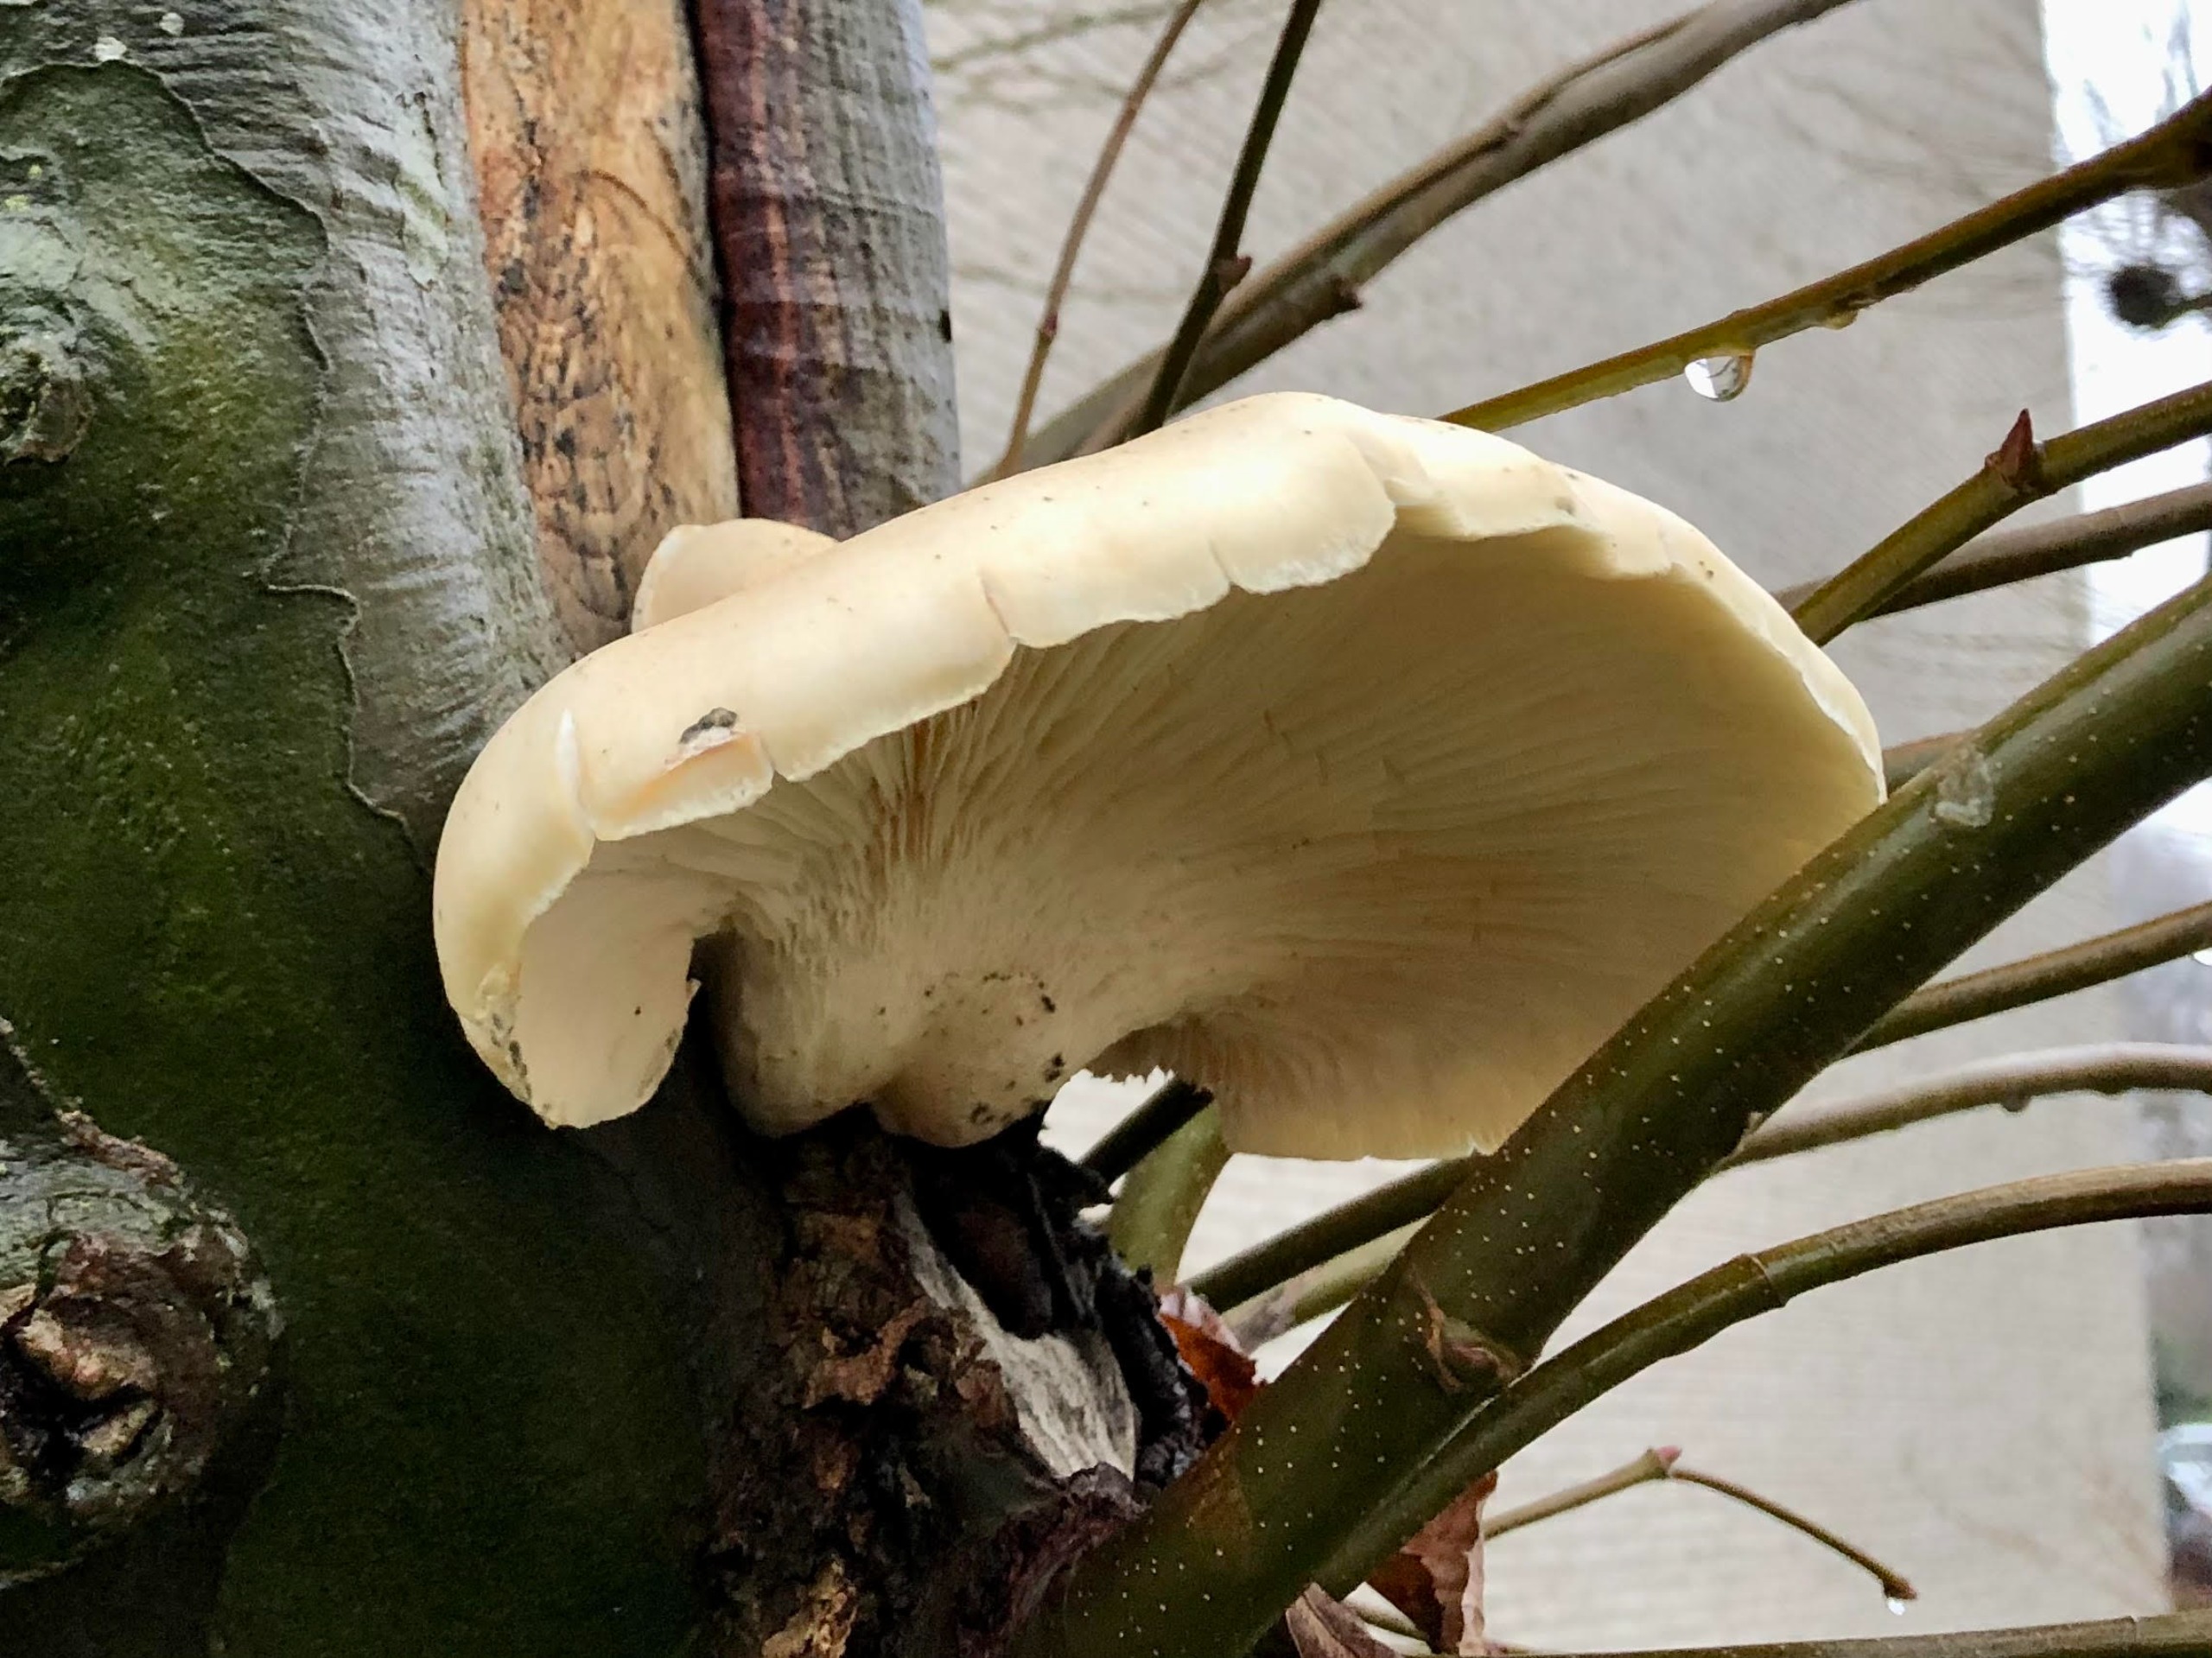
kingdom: Fungi
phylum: Basidiomycota
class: Agaricomycetes
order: Agaricales
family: Pleurotaceae
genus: Pleurotus
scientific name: Pleurotus dryinus
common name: Korkagtig østershat
